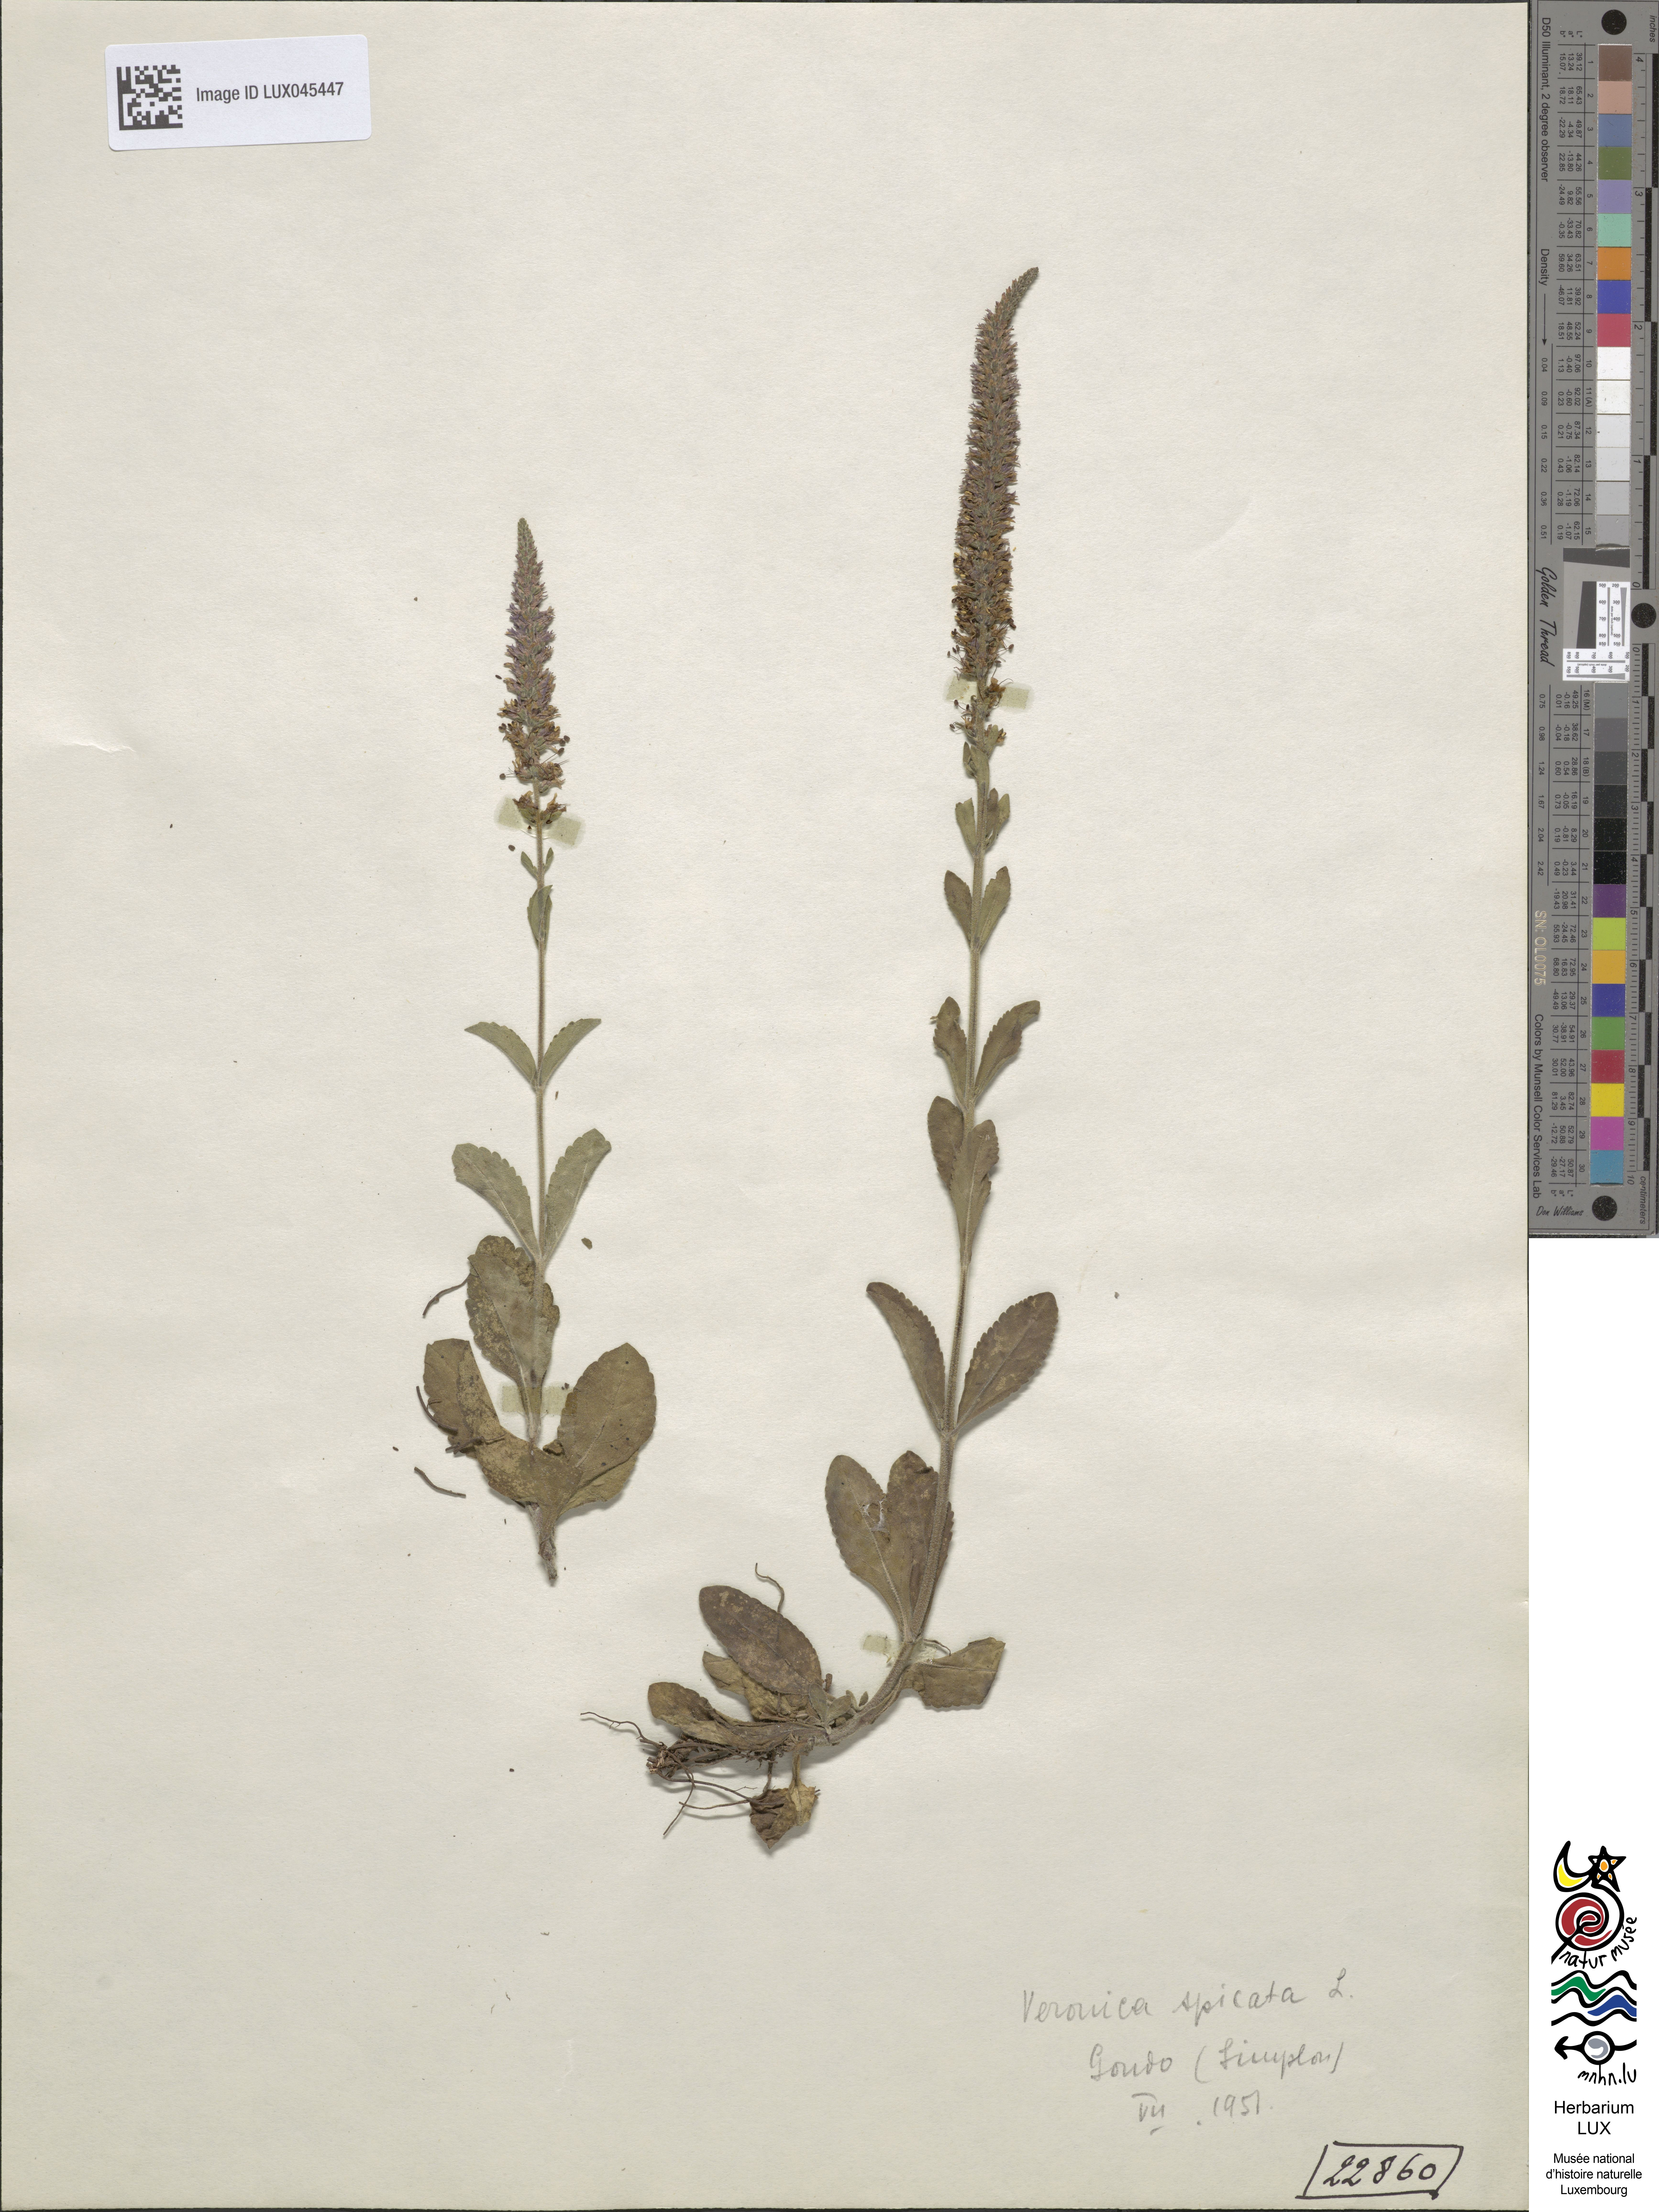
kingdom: Plantae
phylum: Tracheophyta
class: Magnoliopsida
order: Lamiales
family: Plantaginaceae
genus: Veronica
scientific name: Veronica spicata
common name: Spiked speedwell
